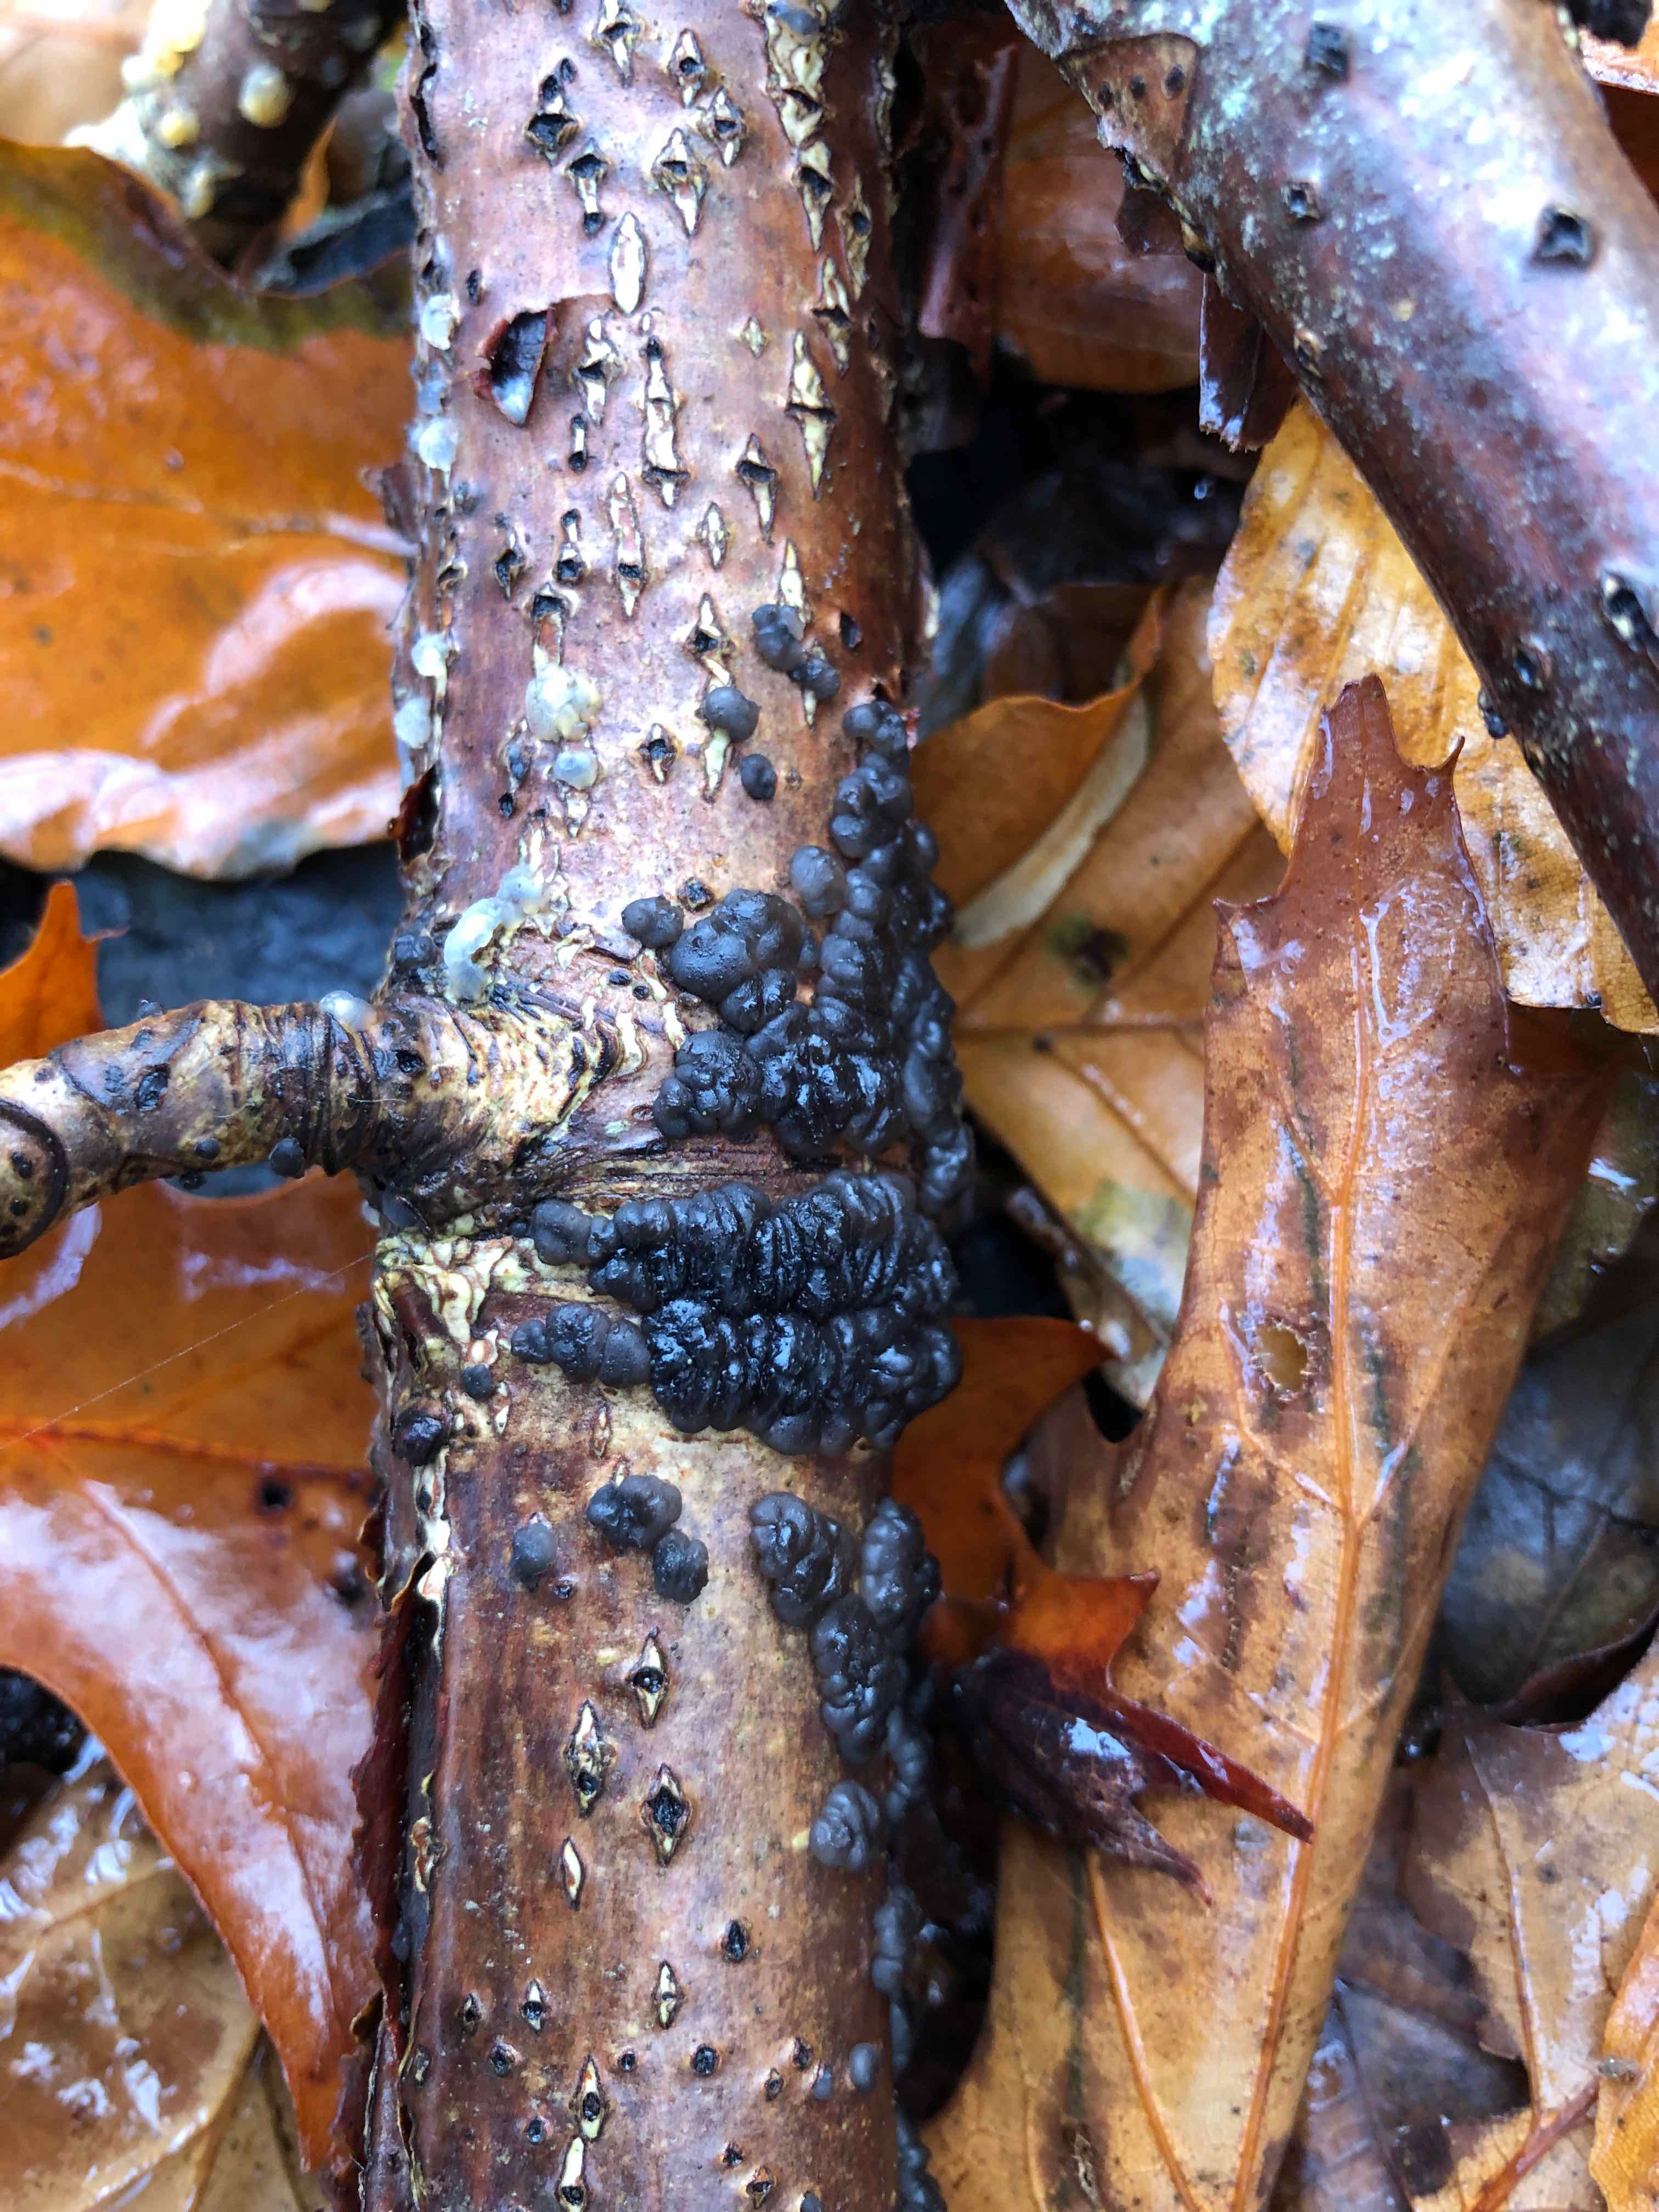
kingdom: Fungi
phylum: Basidiomycota
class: Agaricomycetes
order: Auriculariales
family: Auriculariaceae
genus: Exidia
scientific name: Exidia nigricans
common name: almindelig bævretop
